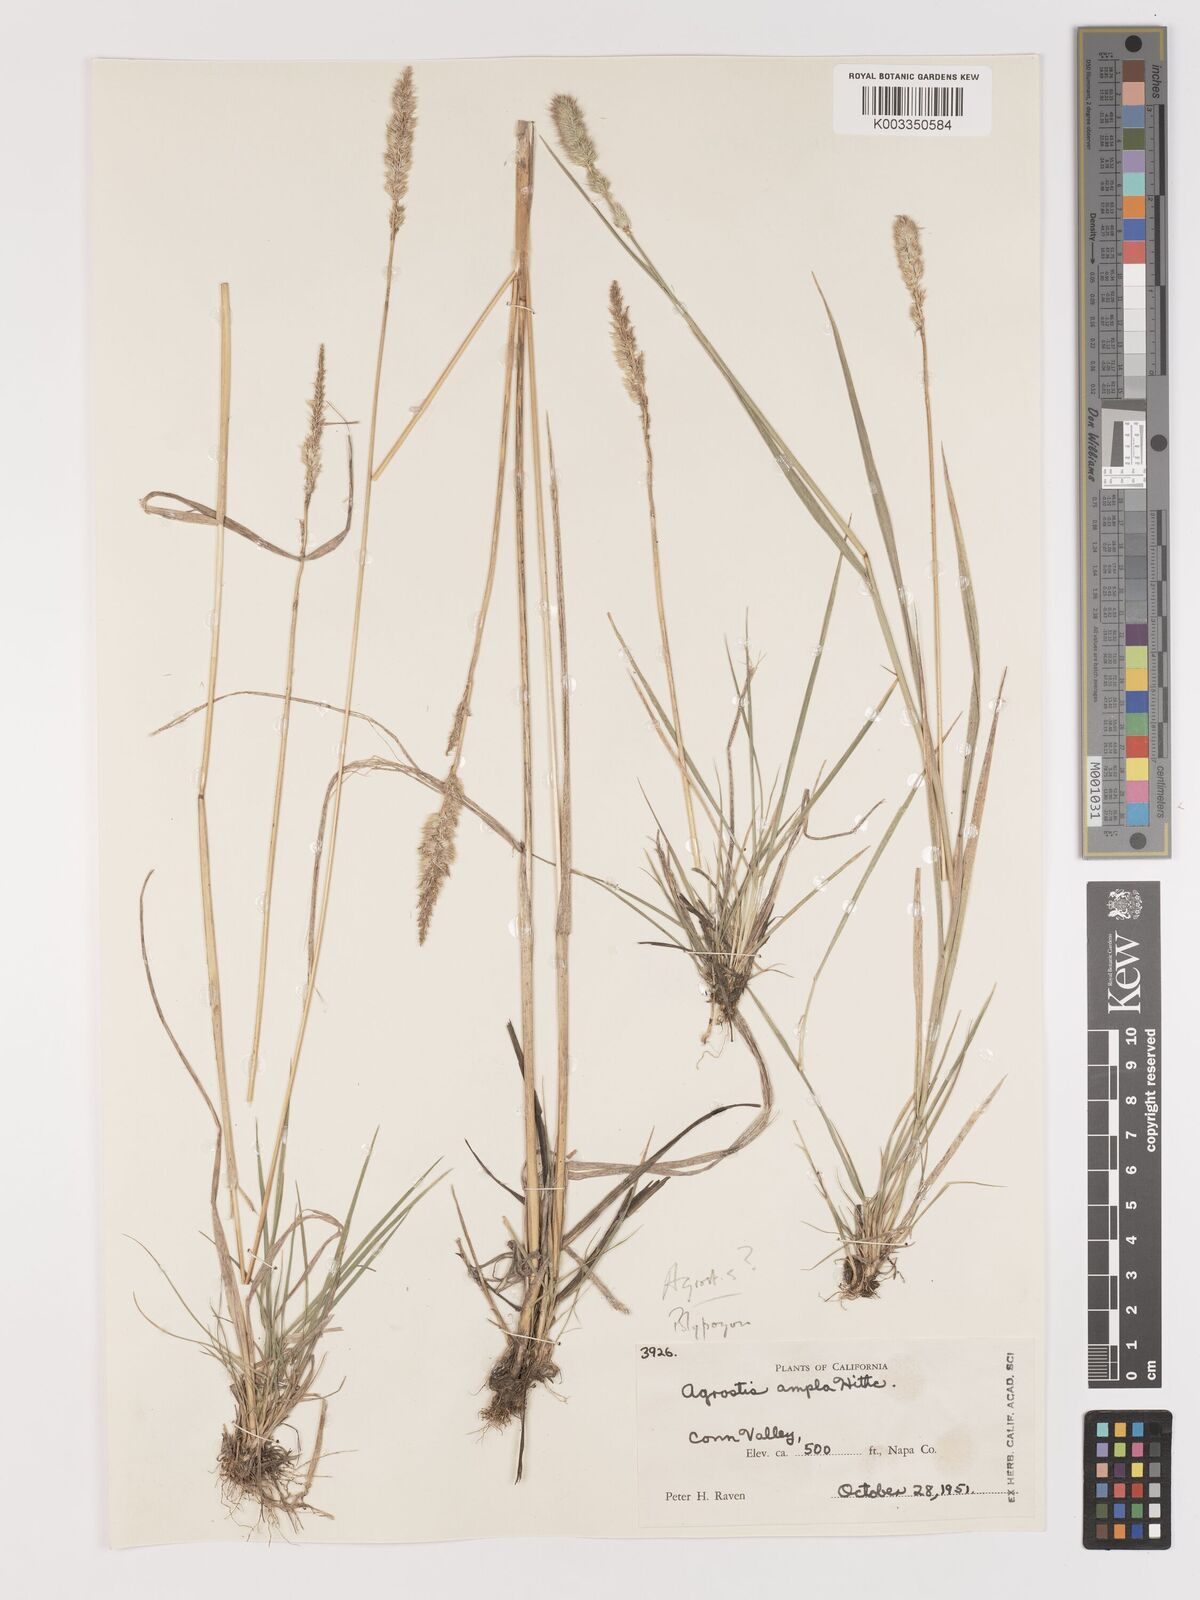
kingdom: Plantae
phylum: Tracheophyta
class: Liliopsida
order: Poales
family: Poaceae
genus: Agropogon
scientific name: Agropogon lutosus
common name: Coast agropogon
